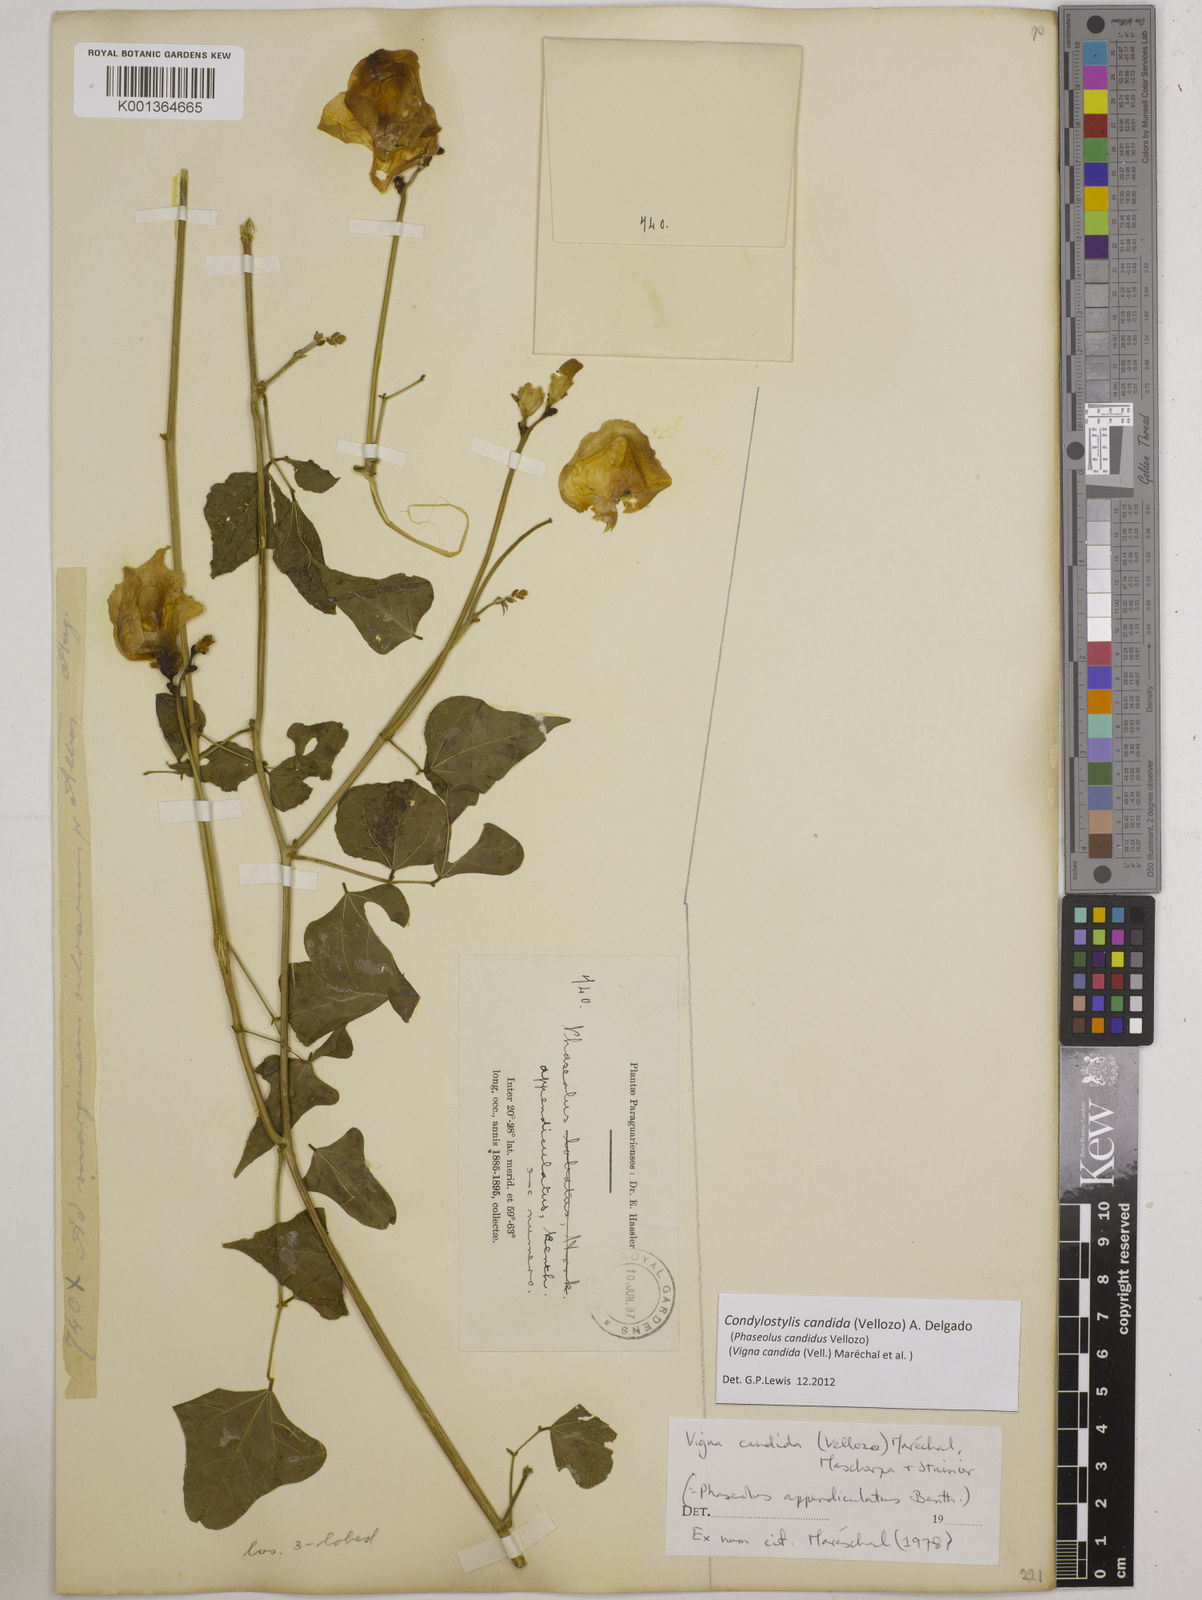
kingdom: Plantae
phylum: Tracheophyta
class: Magnoliopsida
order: Fabales
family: Fabaceae
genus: Condylostylis
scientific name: Condylostylis candida
